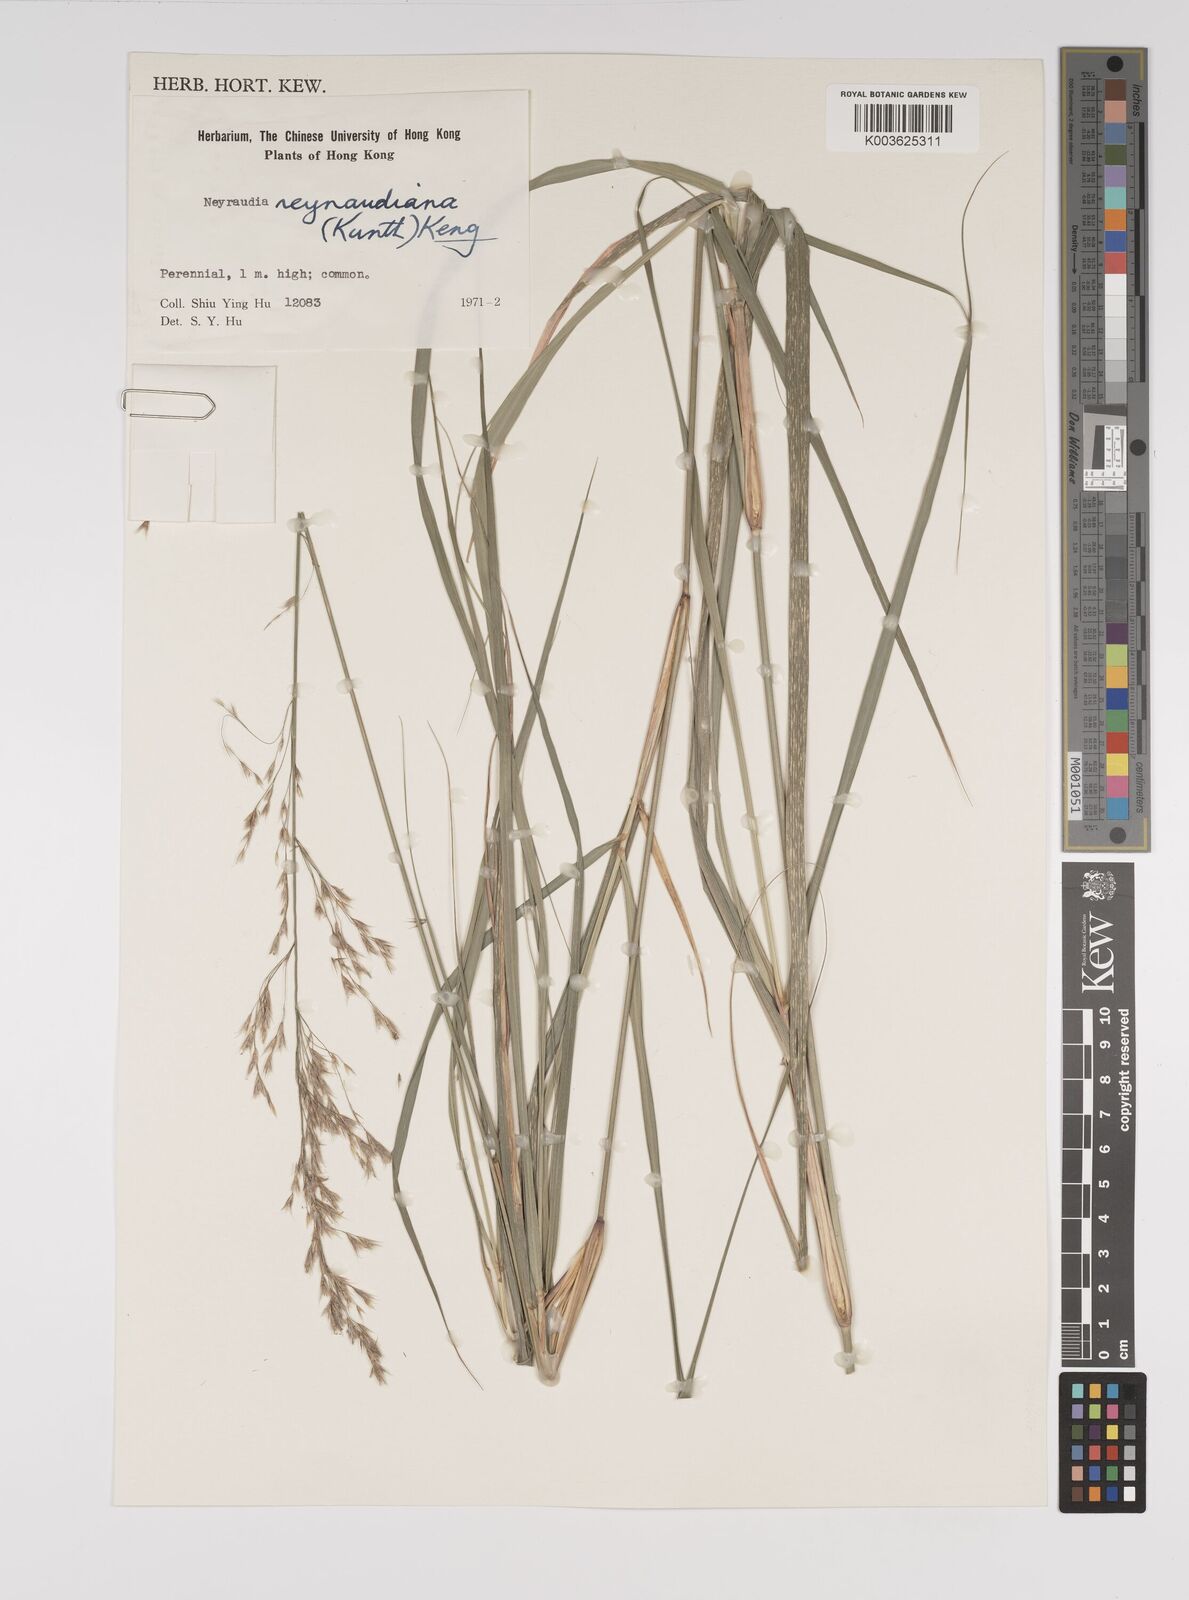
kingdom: Plantae
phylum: Tracheophyta
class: Liliopsida
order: Poales
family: Poaceae
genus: Neyraudia
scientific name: Neyraudia reynaudiana
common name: Silkreed
